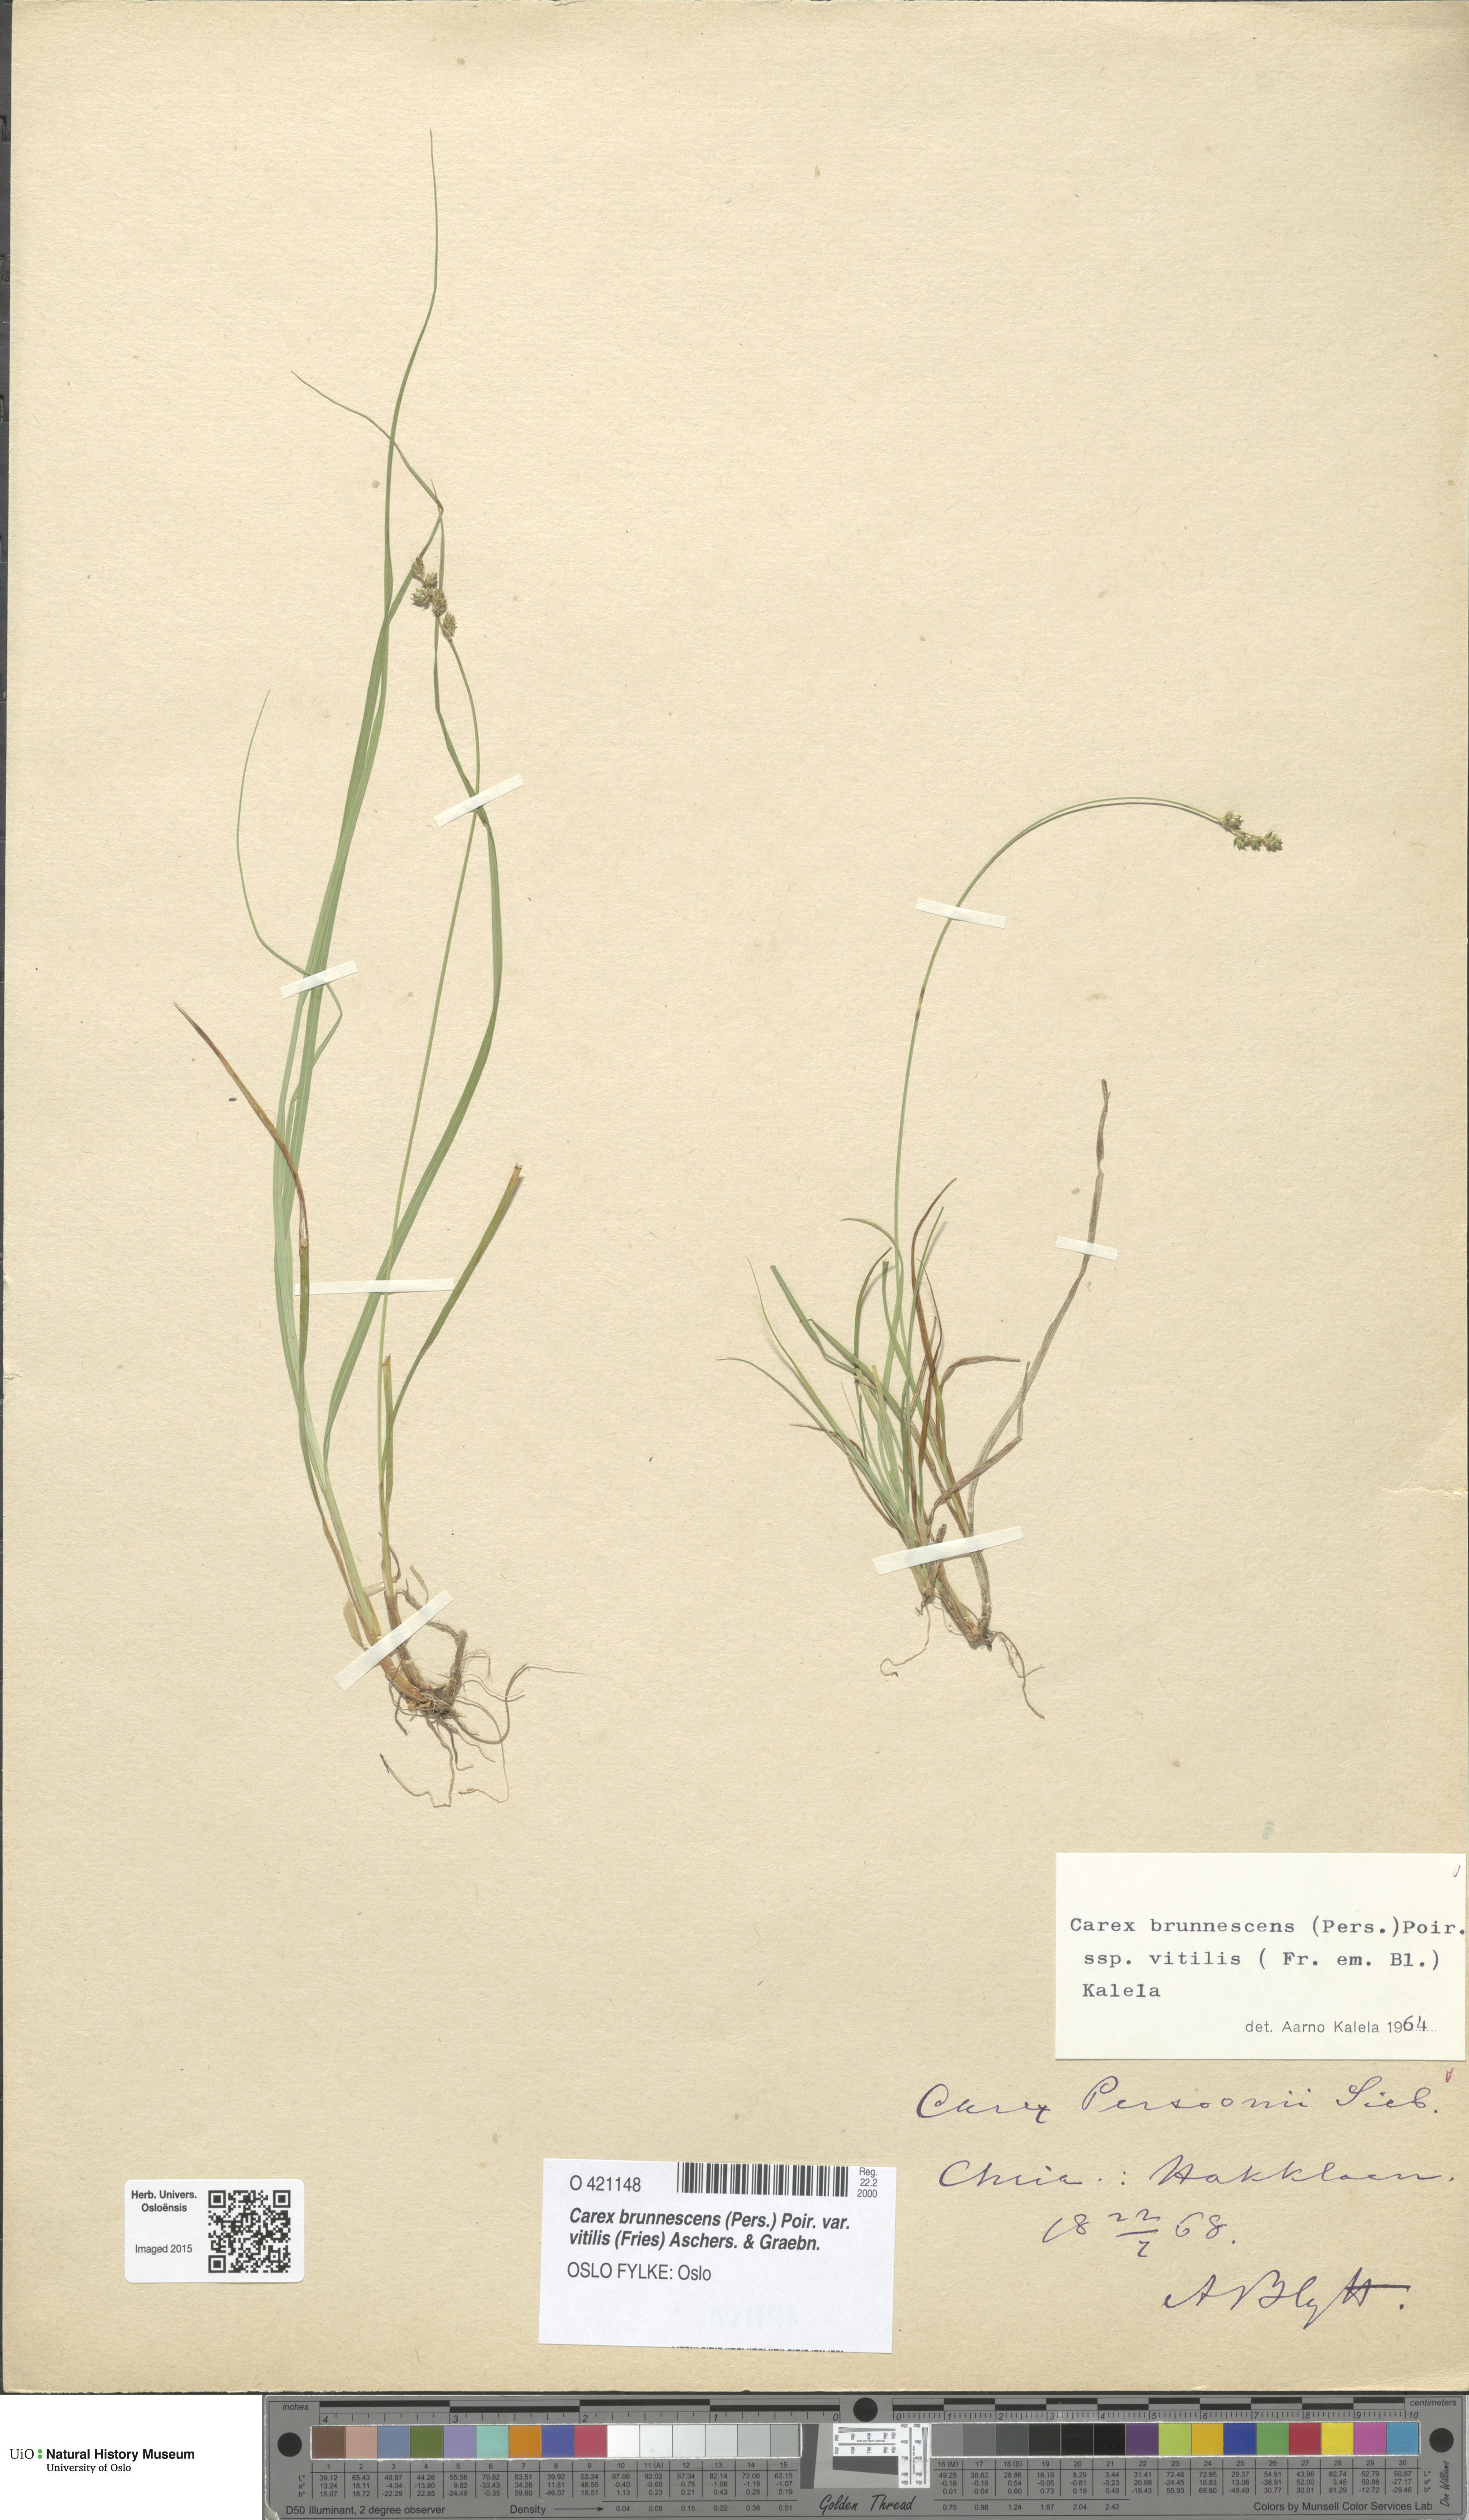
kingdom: Plantae
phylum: Tracheophyta
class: Liliopsida
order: Poales
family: Cyperaceae
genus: Carex
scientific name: Carex brunnescens
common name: Brown sedge
